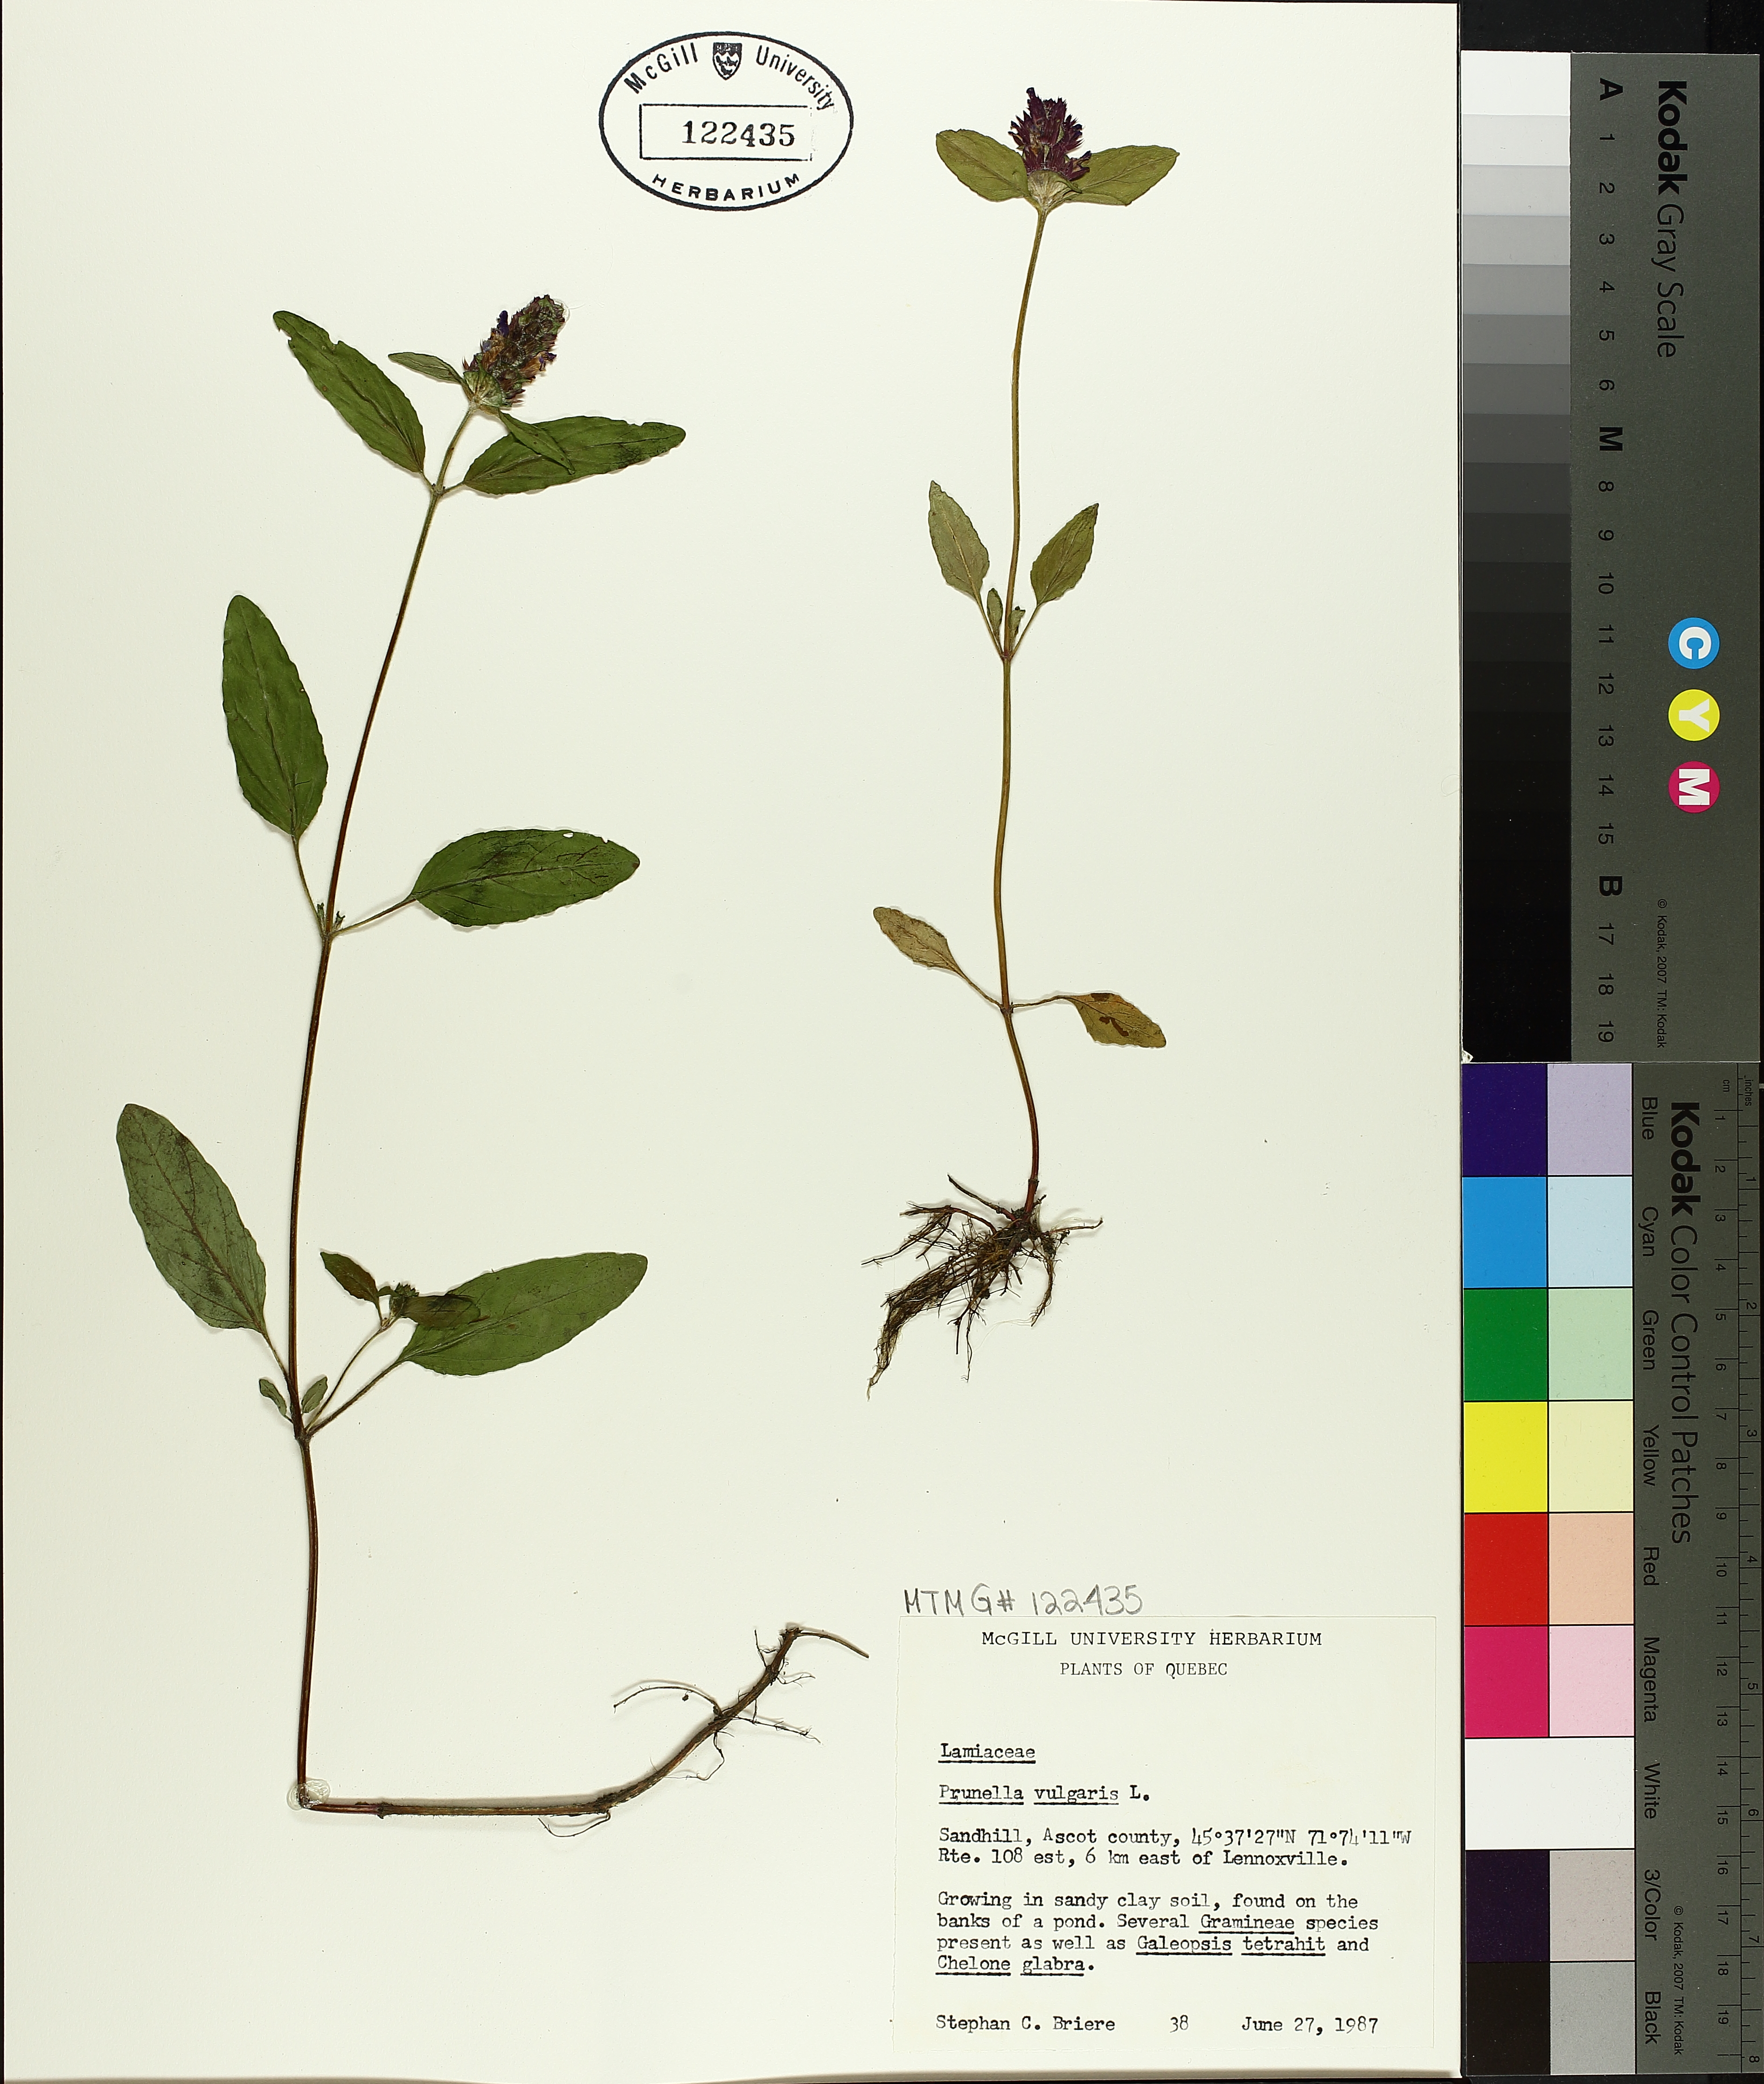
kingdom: Plantae
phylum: Tracheophyta
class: Magnoliopsida
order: Lamiales
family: Lamiaceae
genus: Prunella
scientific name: Prunella vulgaris
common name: Heal-all
